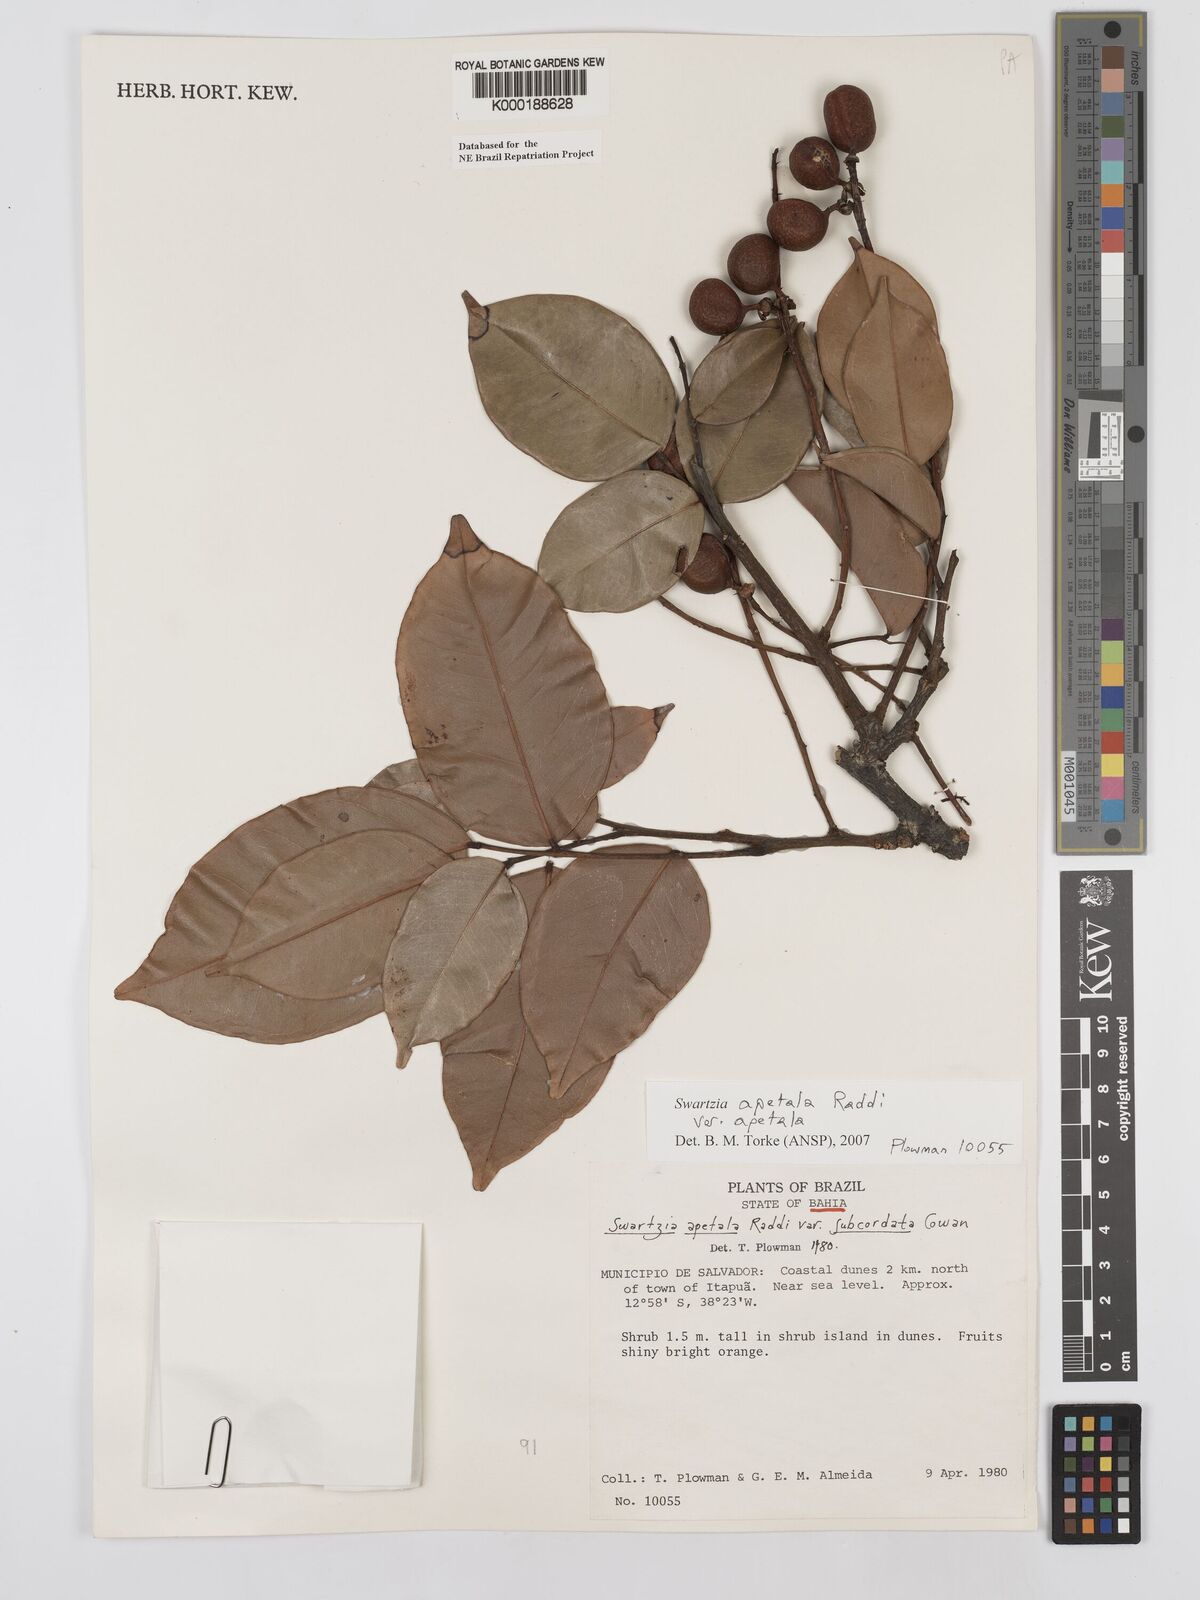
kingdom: Plantae
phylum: Tracheophyta
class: Magnoliopsida
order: Fabales
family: Fabaceae
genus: Swartzia
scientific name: Swartzia apetala
